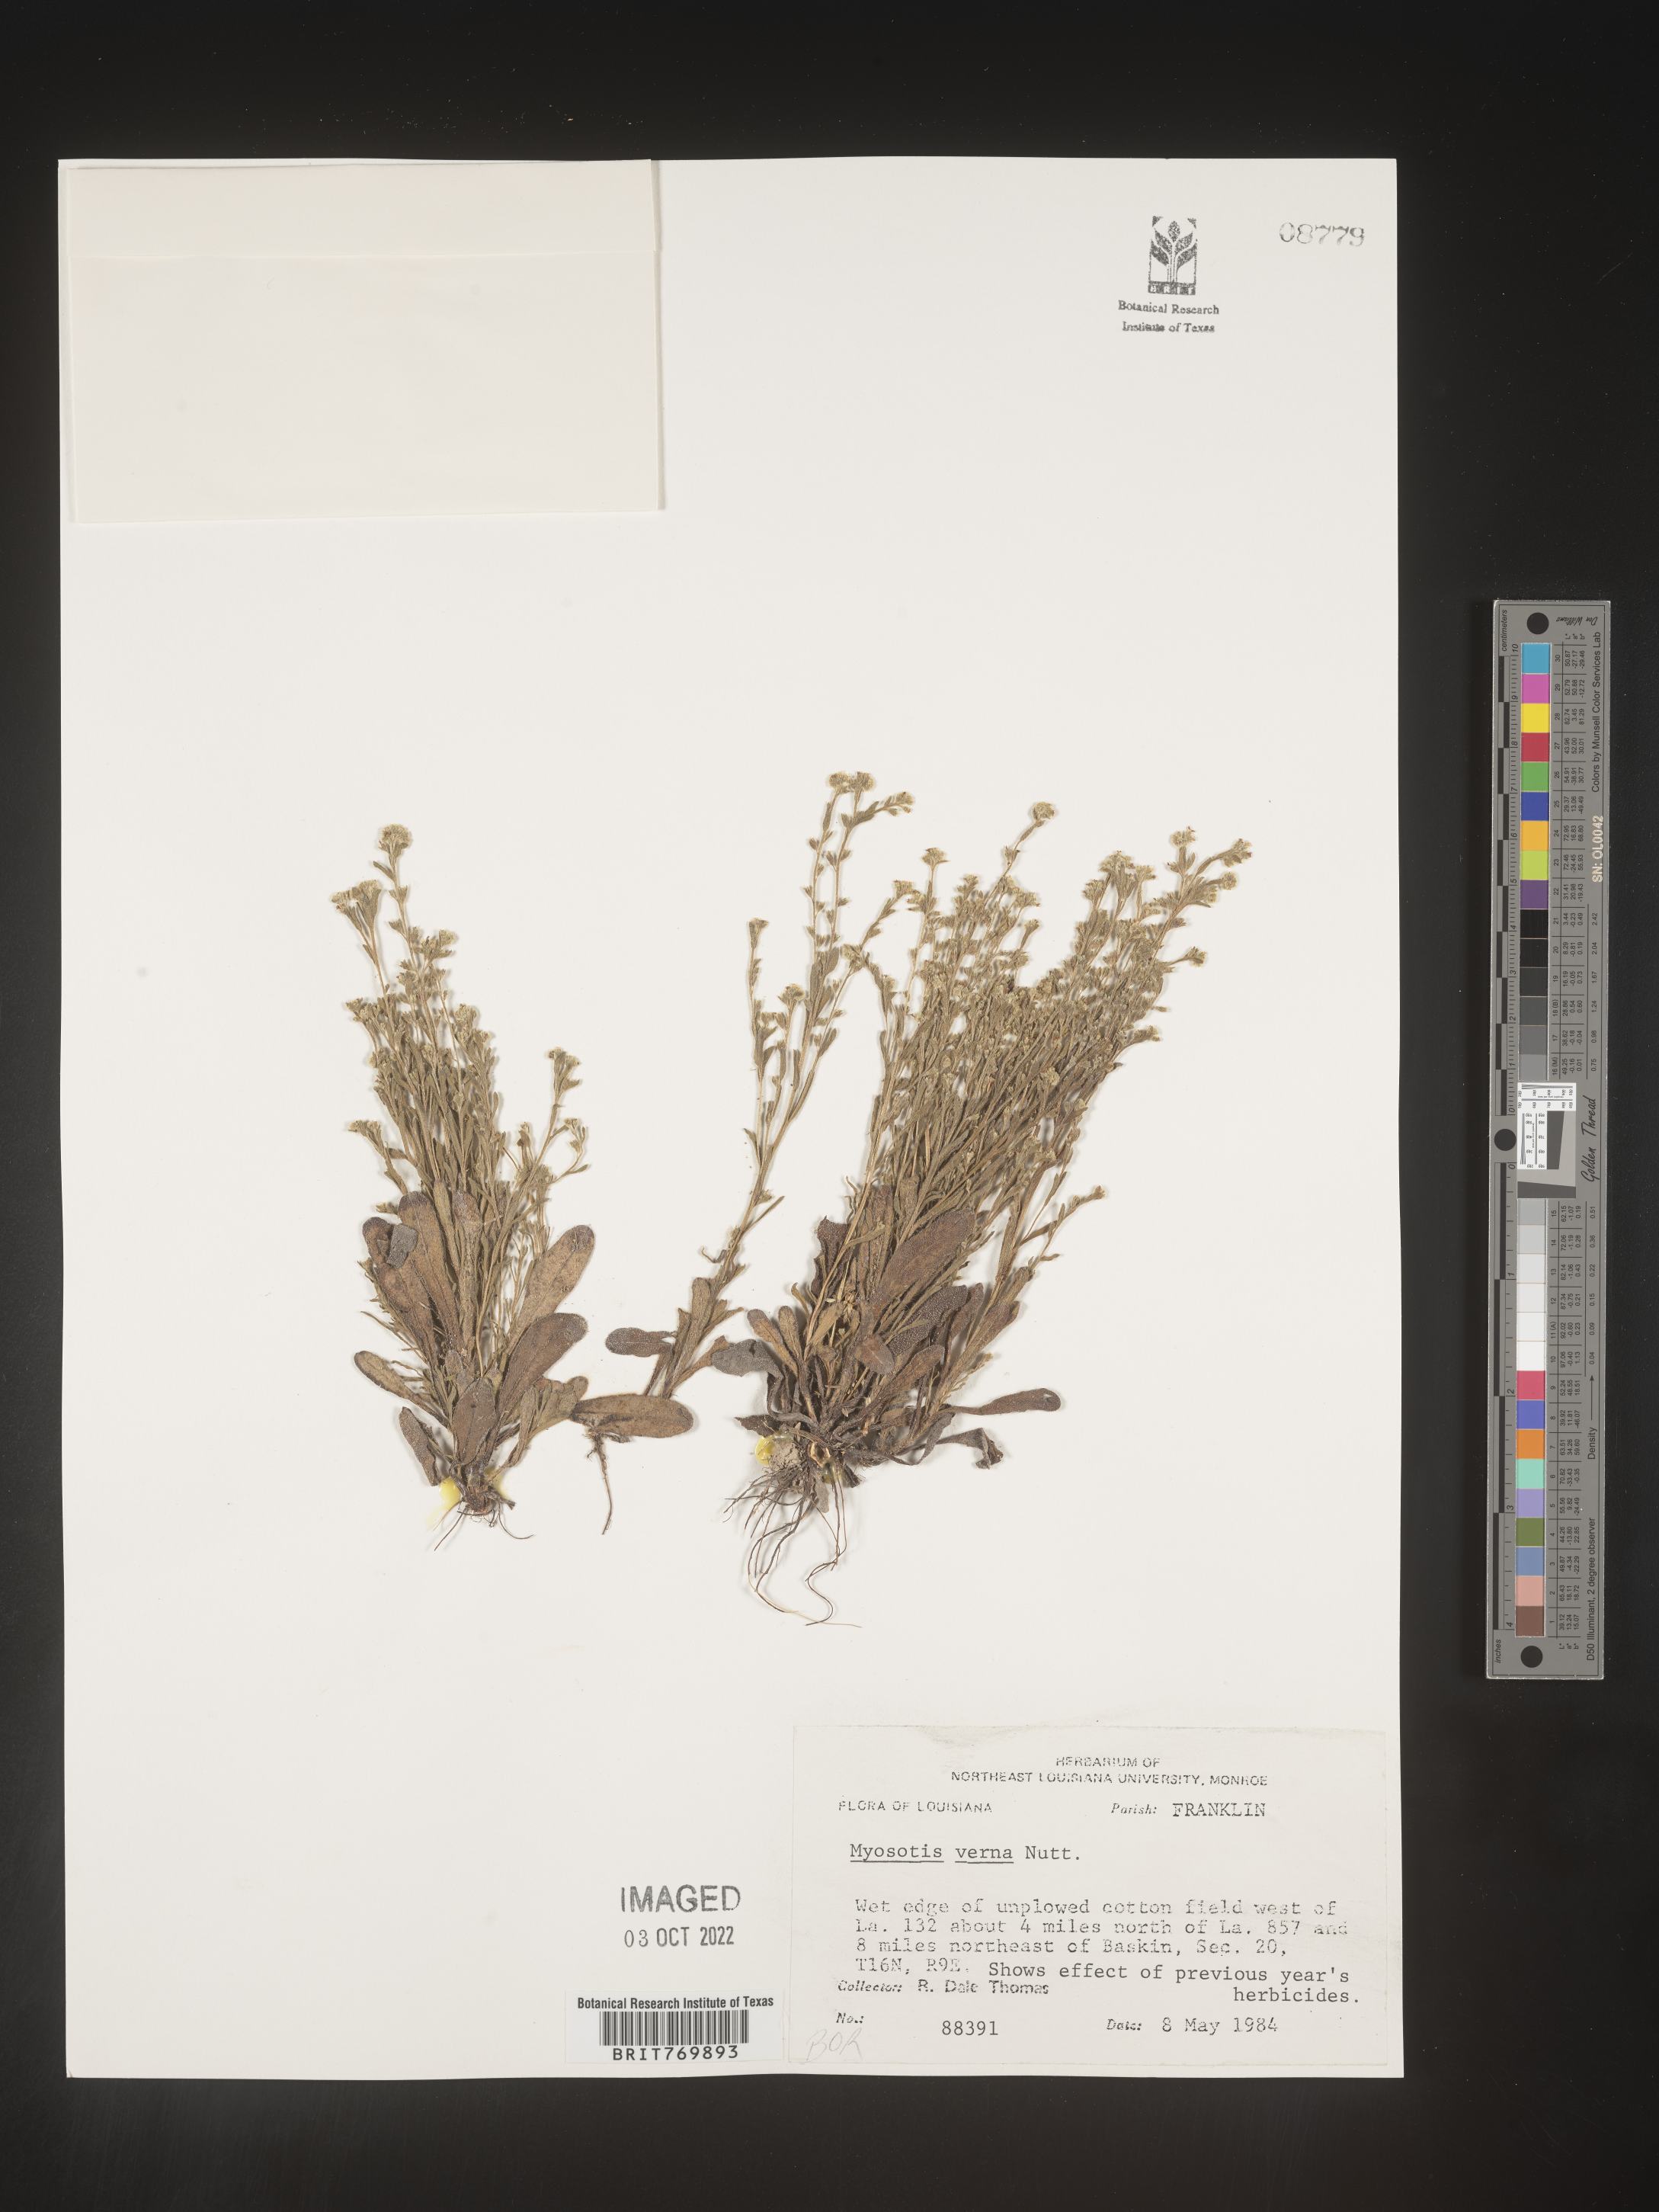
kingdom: Plantae
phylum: Tracheophyta
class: Magnoliopsida
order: Boraginales
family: Boraginaceae
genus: Myosotis
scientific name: Myosotis verna
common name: Early forget-me-not
